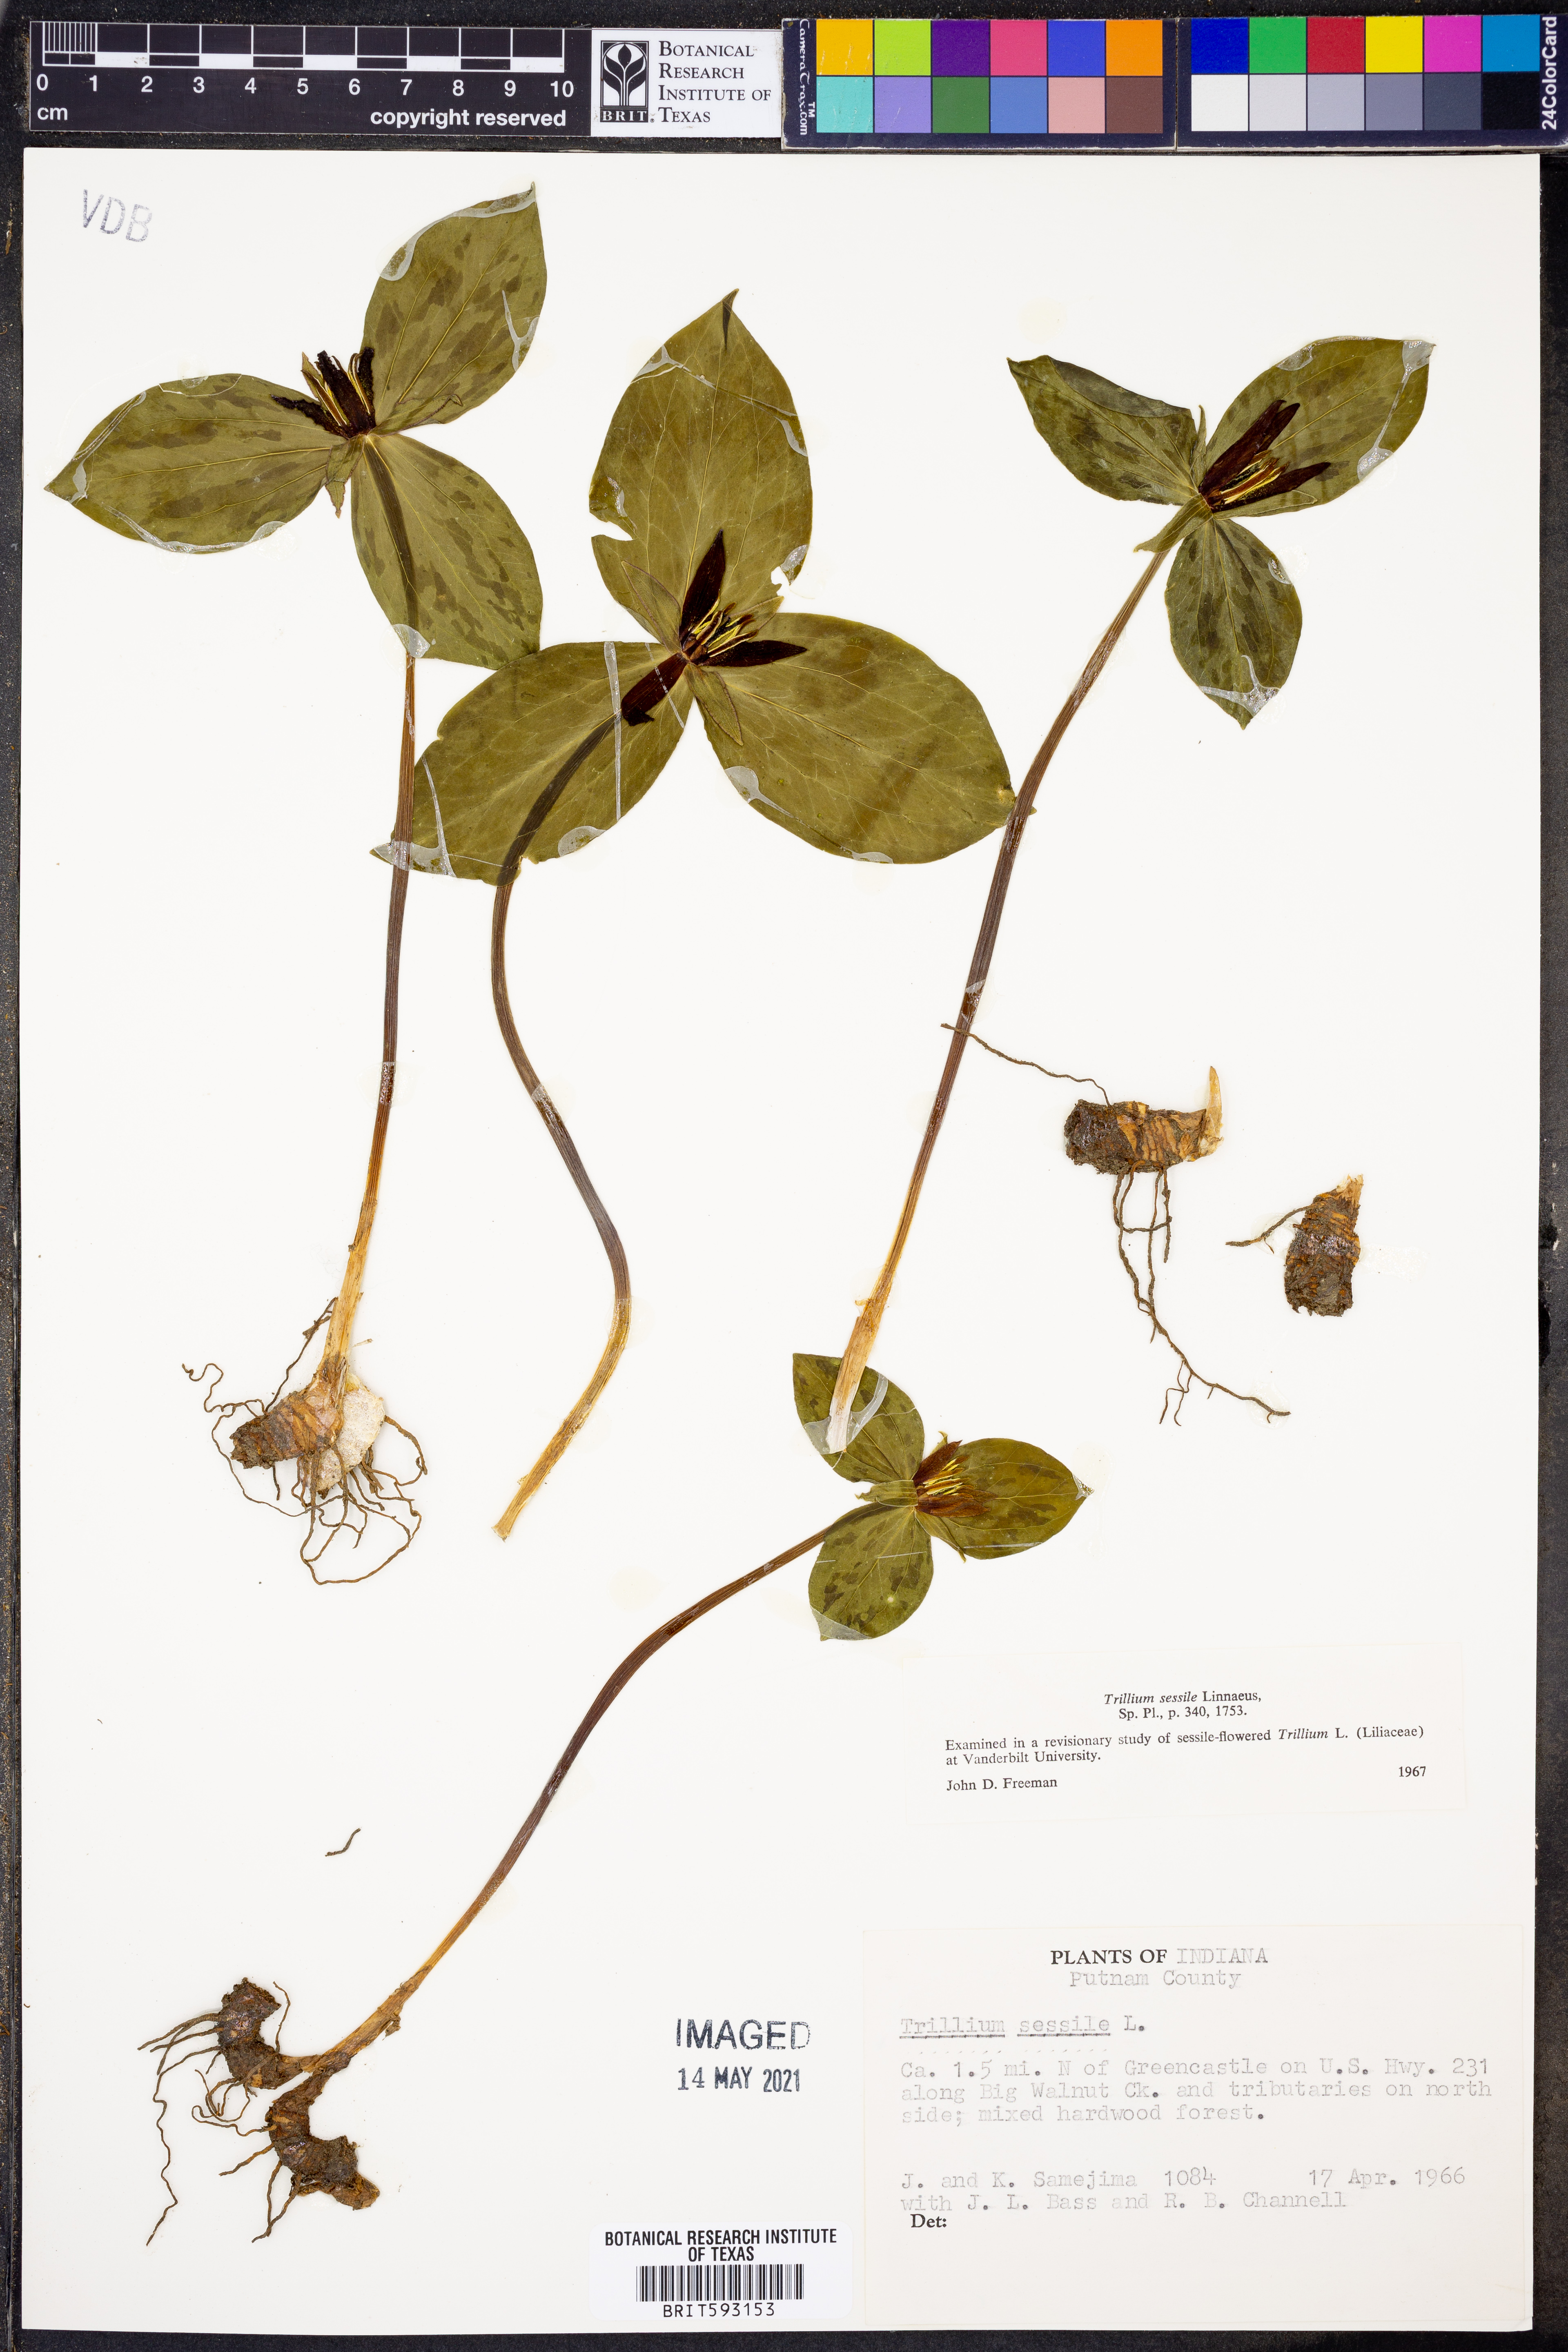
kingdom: Plantae
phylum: Tracheophyta
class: Liliopsida
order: Liliales
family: Melanthiaceae
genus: Trillium
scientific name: Trillium sessile
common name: Sessile trillium
